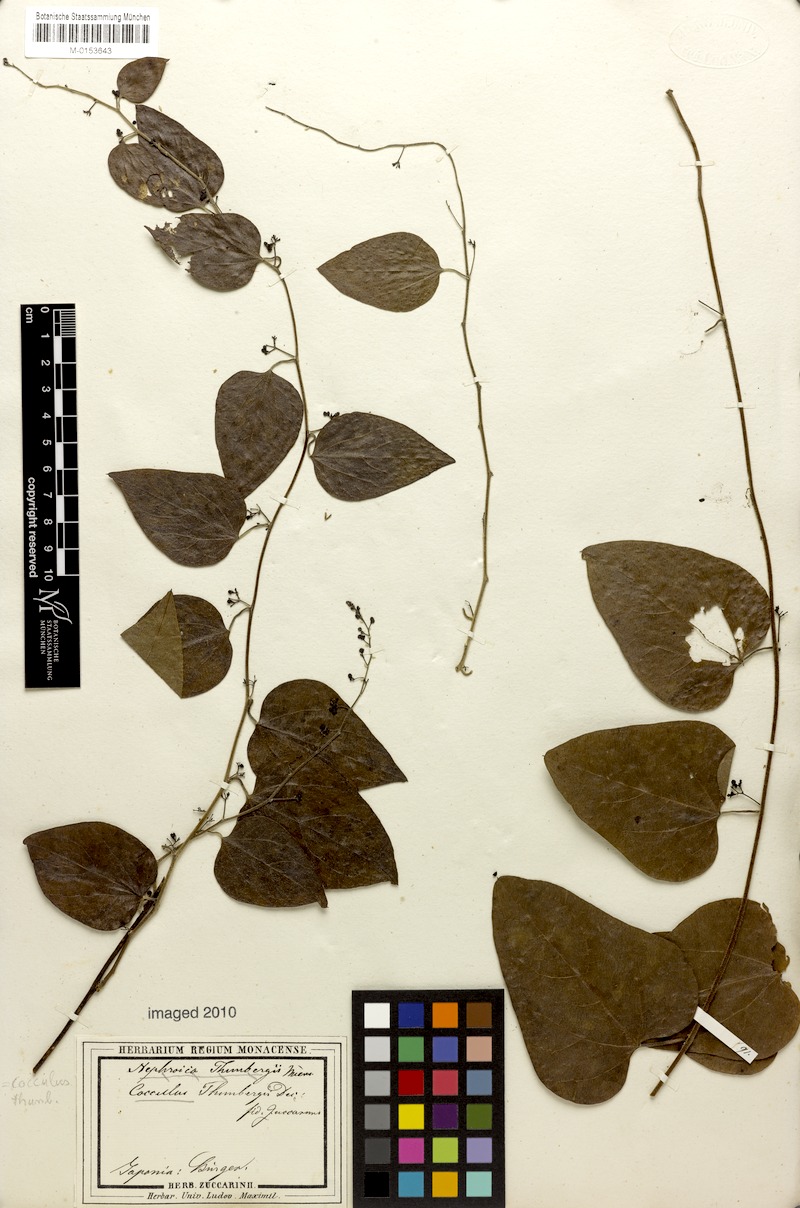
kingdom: Plantae
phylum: Tracheophyta
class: Magnoliopsida
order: Ranunculales
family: Menispermaceae
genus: Cocculus
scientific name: Cocculus orbiculatus
